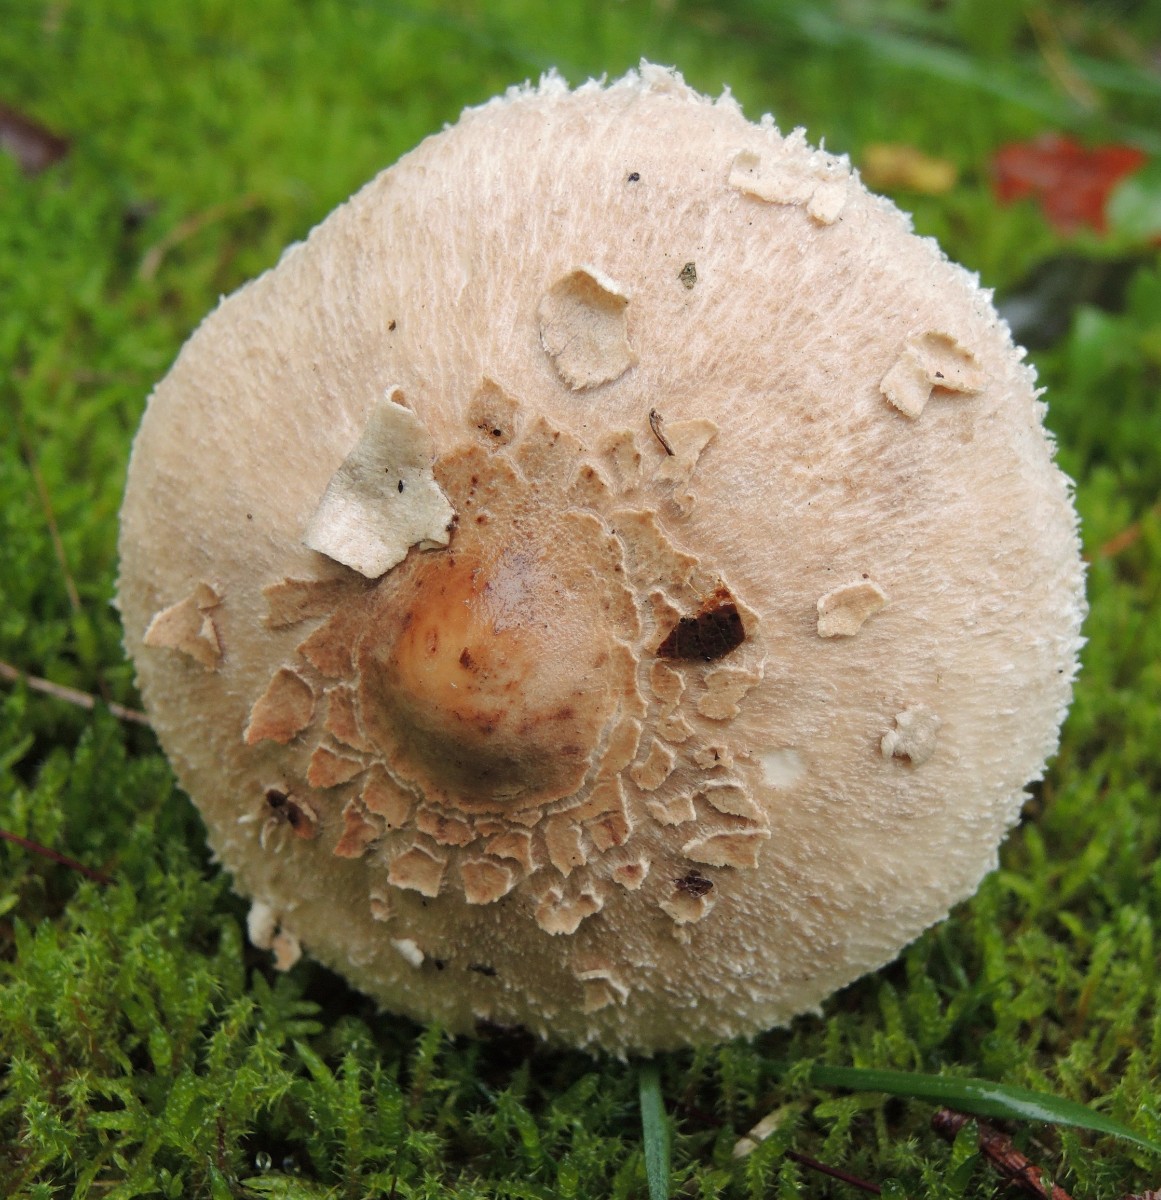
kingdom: Fungi
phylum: Basidiomycota
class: Agaricomycetes
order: Agaricales
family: Agaricaceae
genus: Macrolepiota
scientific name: Macrolepiota mastoidea
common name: puklet kæmpeparasolhat
